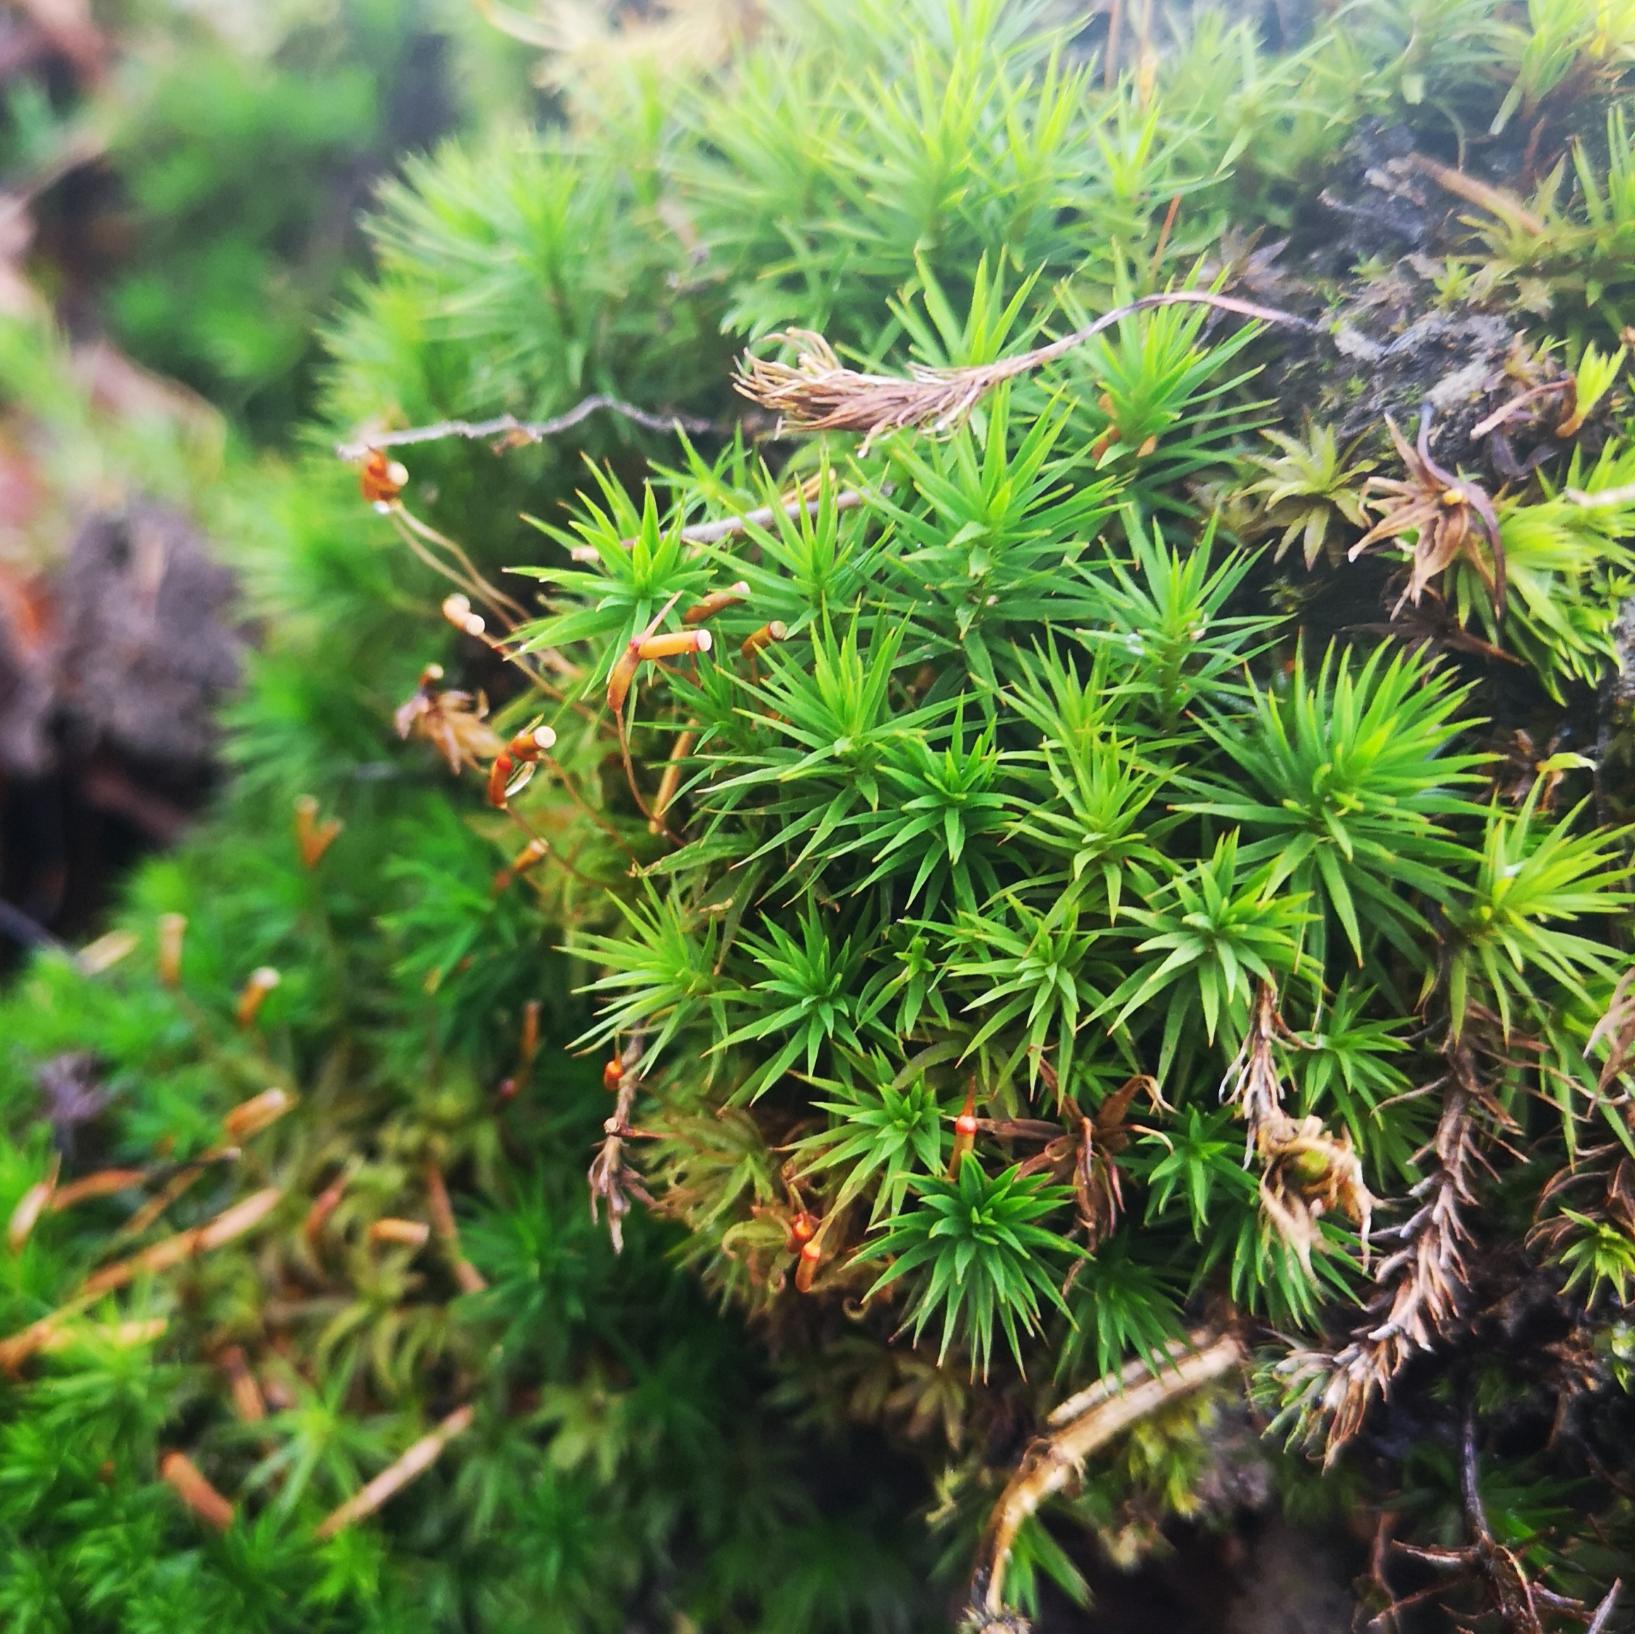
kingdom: Plantae
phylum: Bryophyta
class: Polytrichopsida
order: Polytrichales
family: Polytrichaceae
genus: Polytrichum
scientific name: Polytrichum formosum
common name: Skov-jomfruhår
